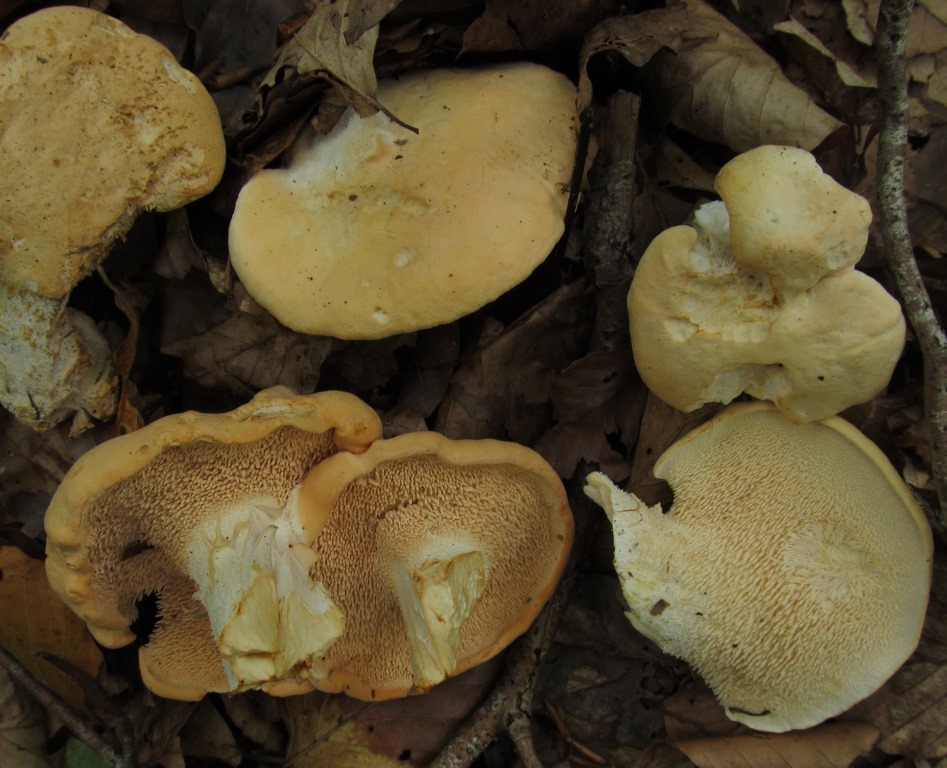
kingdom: Fungi
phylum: Basidiomycota
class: Agaricomycetes
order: Cantharellales
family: Hydnaceae
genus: Hydnum
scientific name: Hydnum repandum
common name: almindelig pigsvamp
